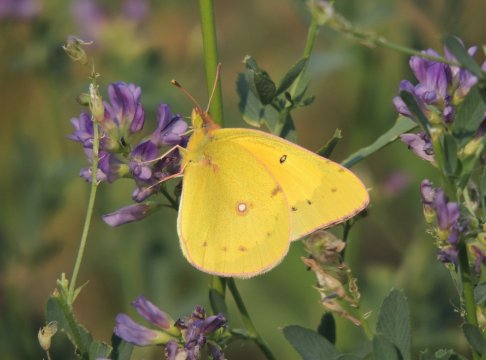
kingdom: Animalia
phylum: Arthropoda
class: Insecta
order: Lepidoptera
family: Pieridae
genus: Colias
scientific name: Colias eurytheme
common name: Orange Sulphur
